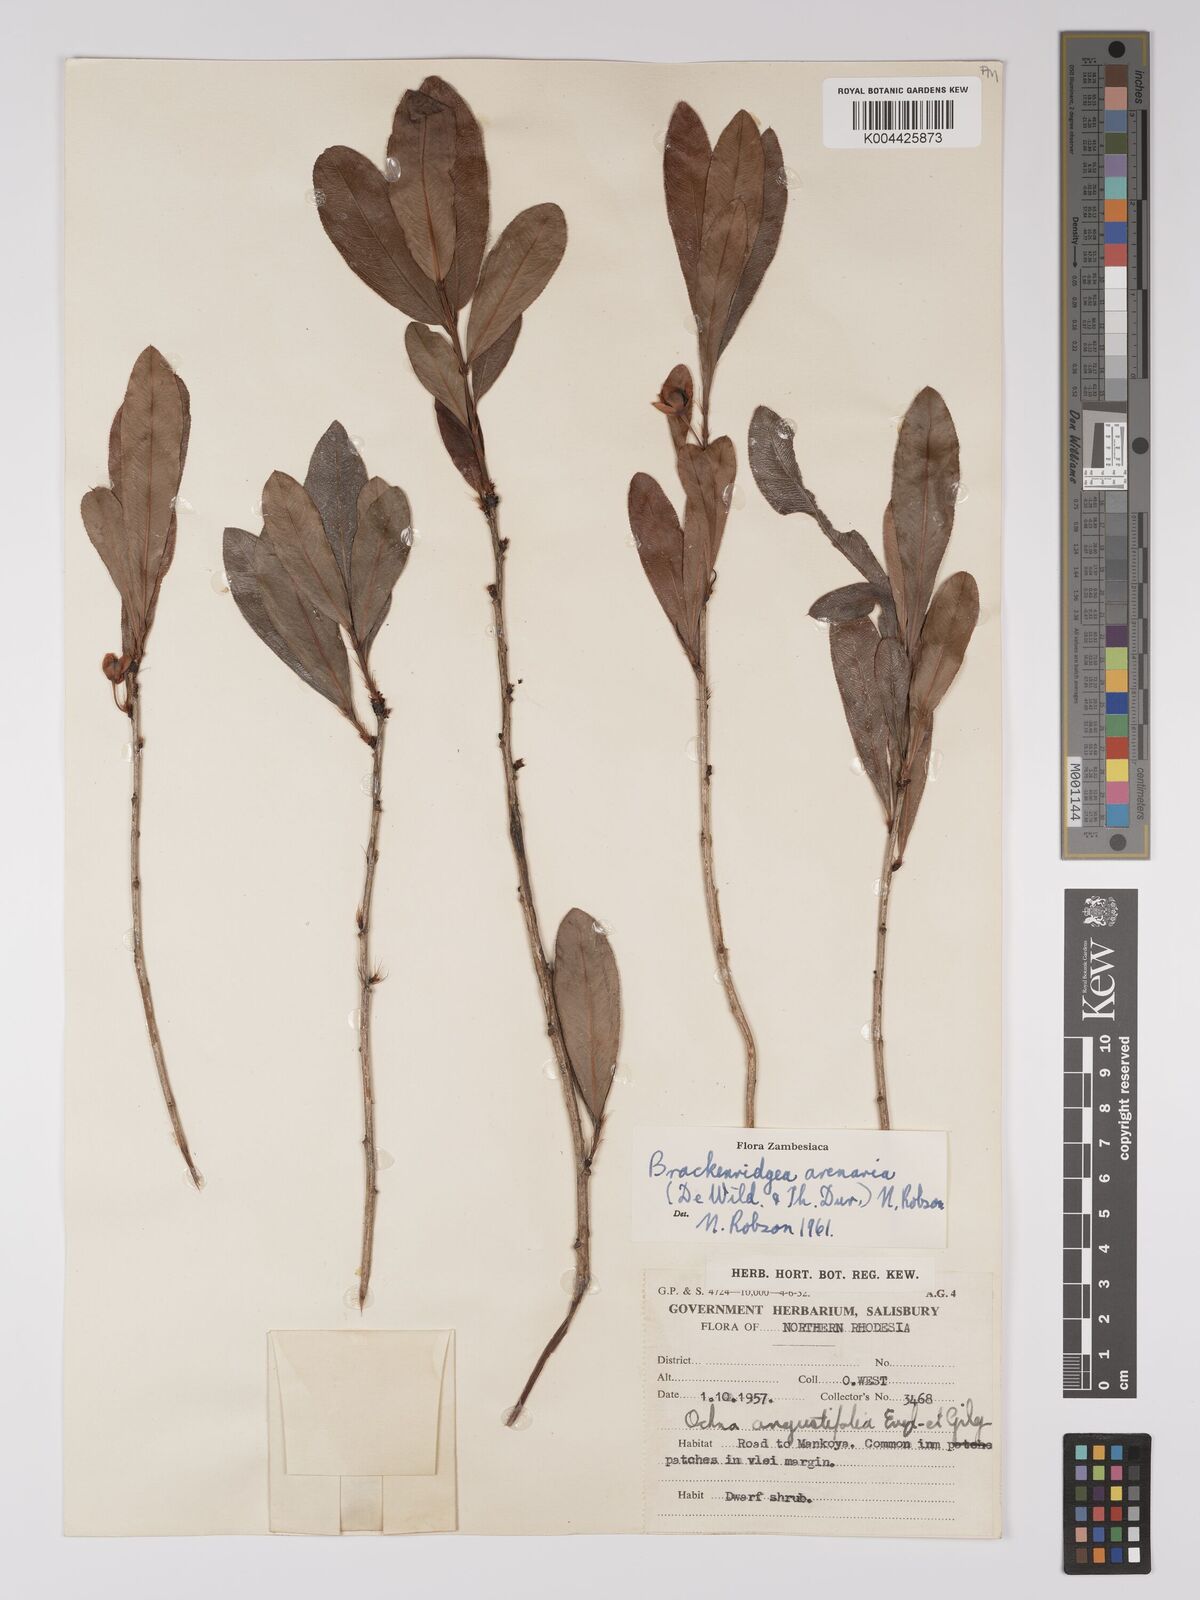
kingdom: Plantae
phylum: Tracheophyta
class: Magnoliopsida
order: Malpighiales
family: Ochnaceae
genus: Ochna
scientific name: Ochna arenaria
